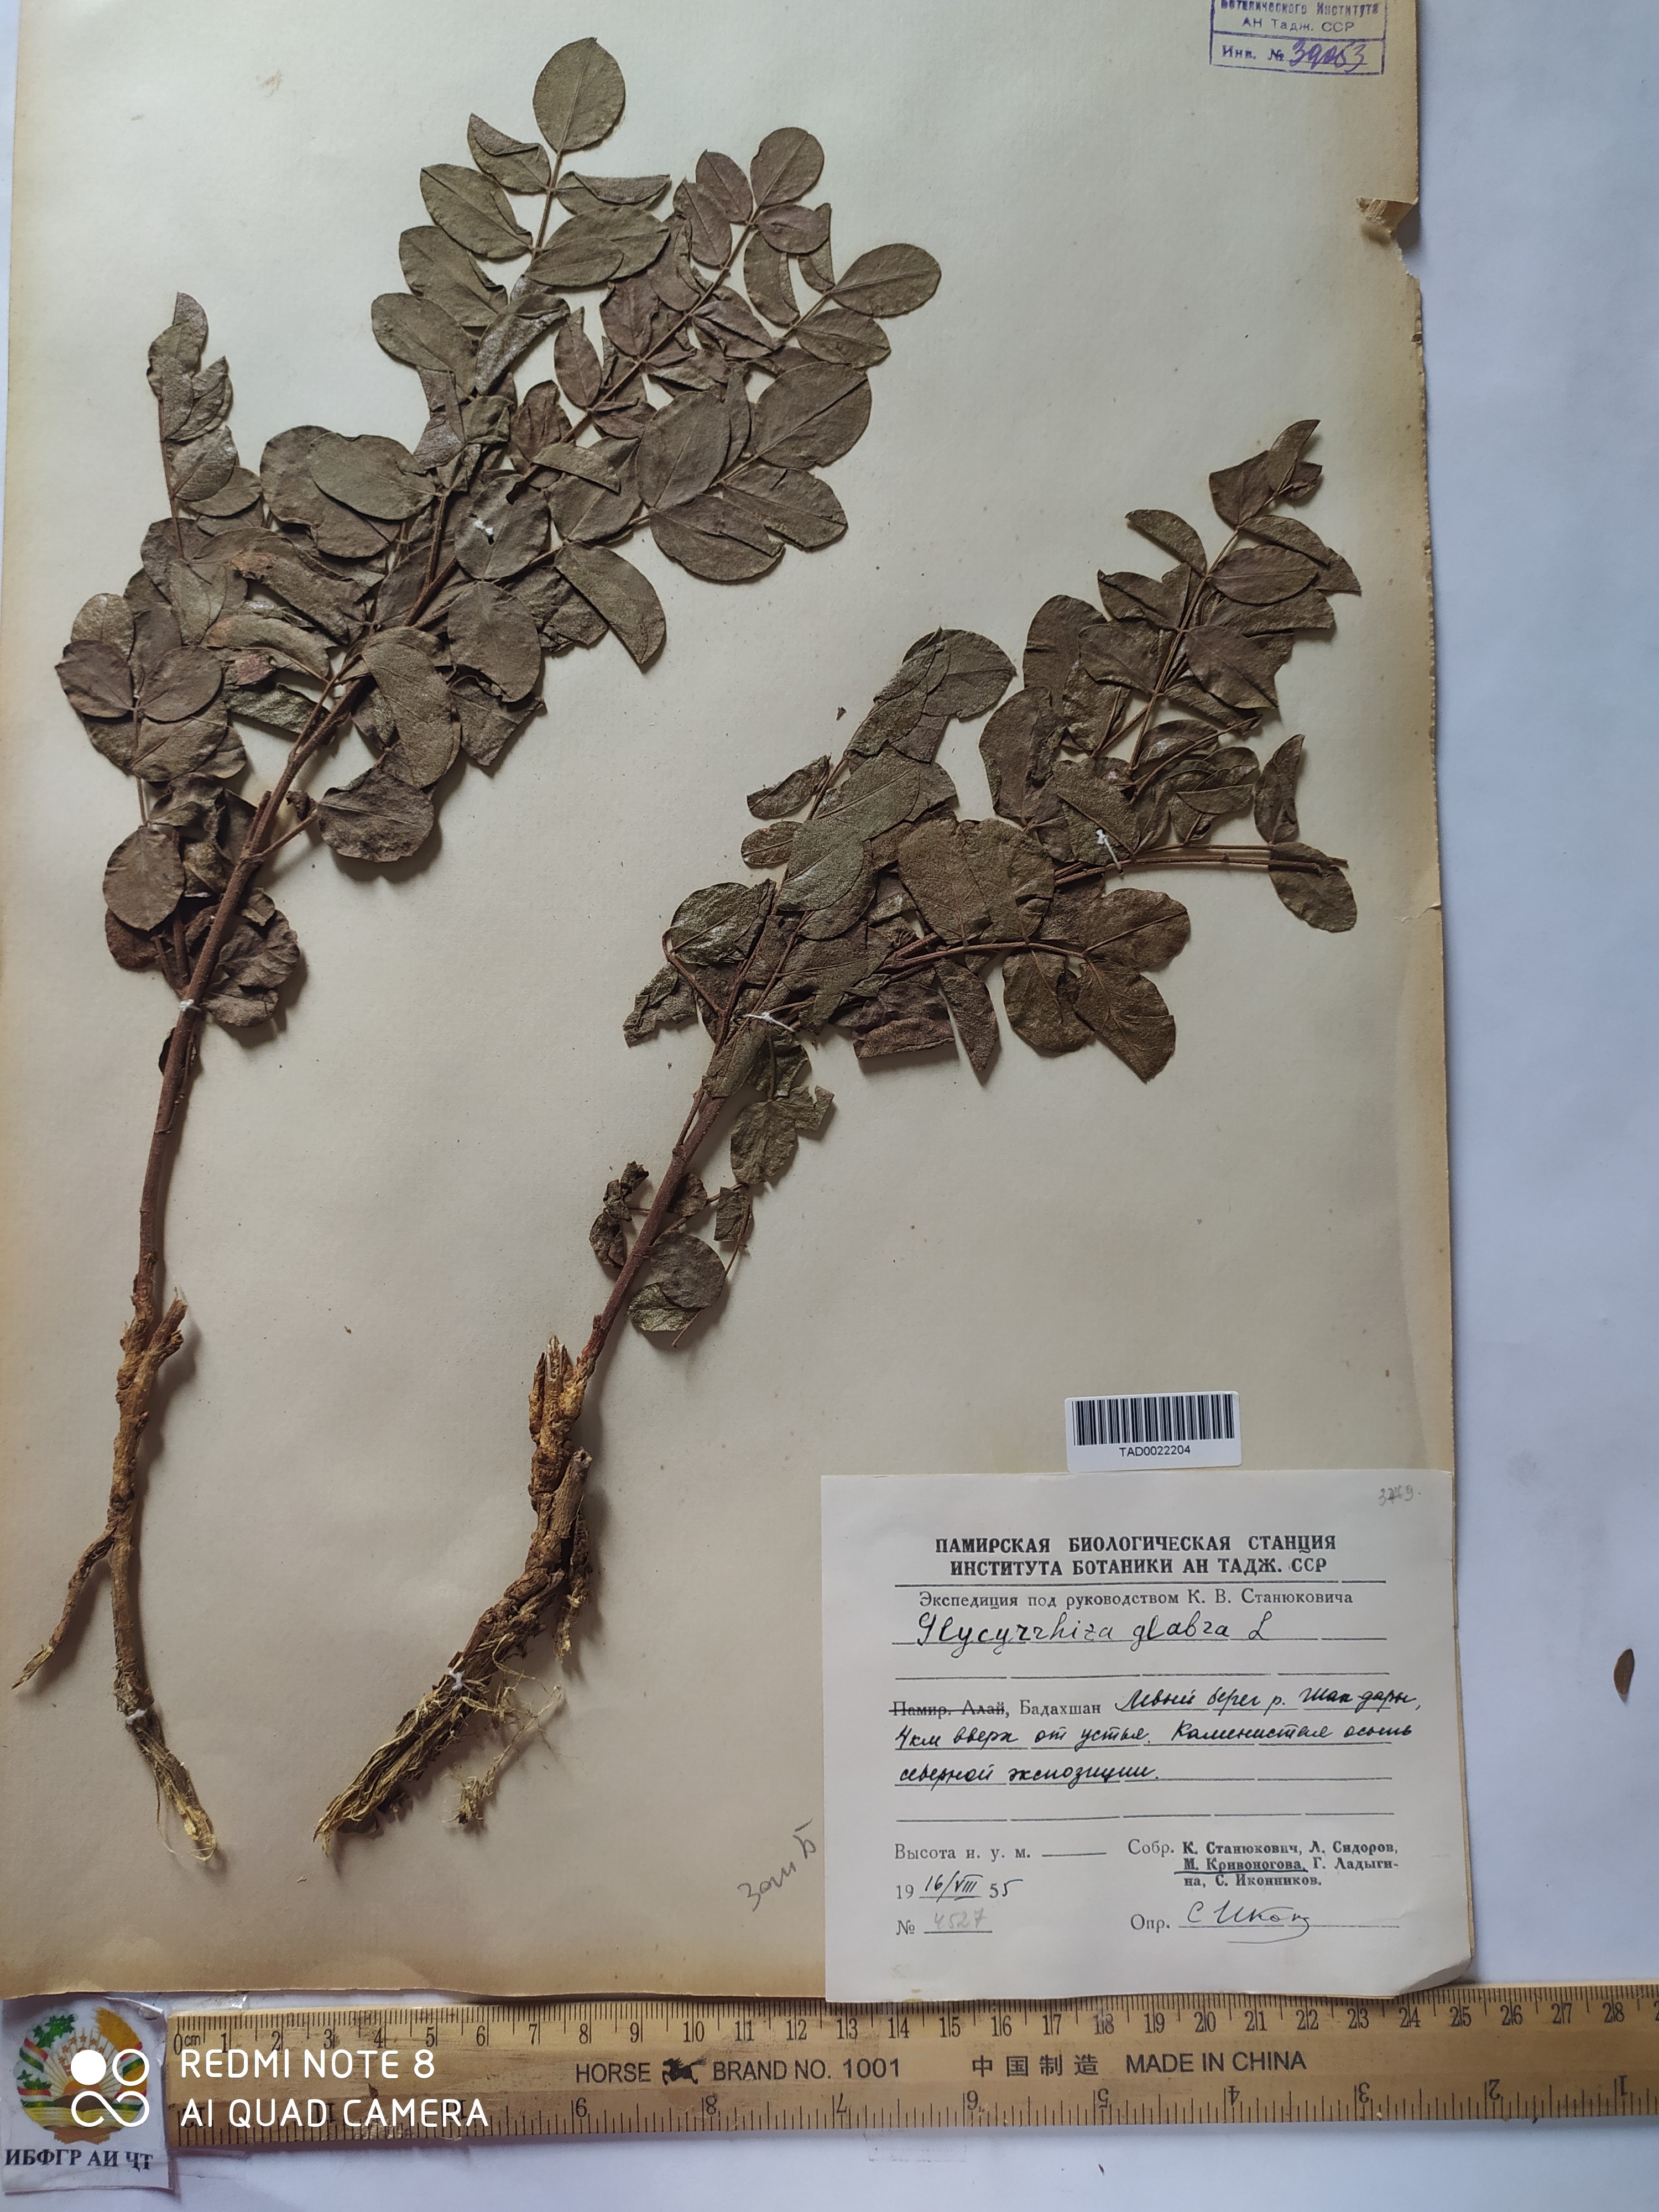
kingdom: Plantae
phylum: Tracheophyta
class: Magnoliopsida
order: Fabales
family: Fabaceae
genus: Glycyrrhiza
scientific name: Glycyrrhiza glabra
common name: Liquorice
